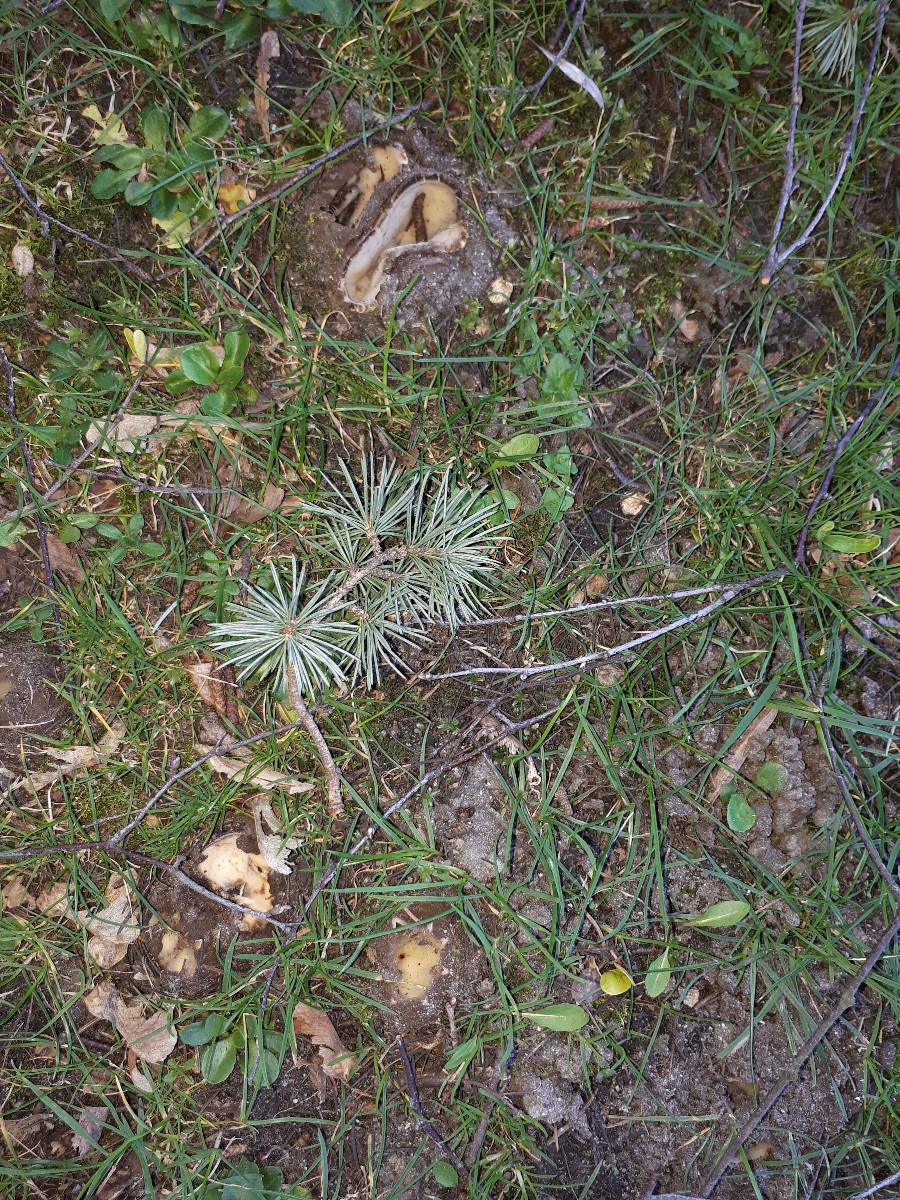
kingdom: Fungi
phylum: Ascomycota
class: Pezizomycetes
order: Pezizales
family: Pyronemataceae
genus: Geopora
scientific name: Geopora sumneriana
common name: vår-jordbæger
